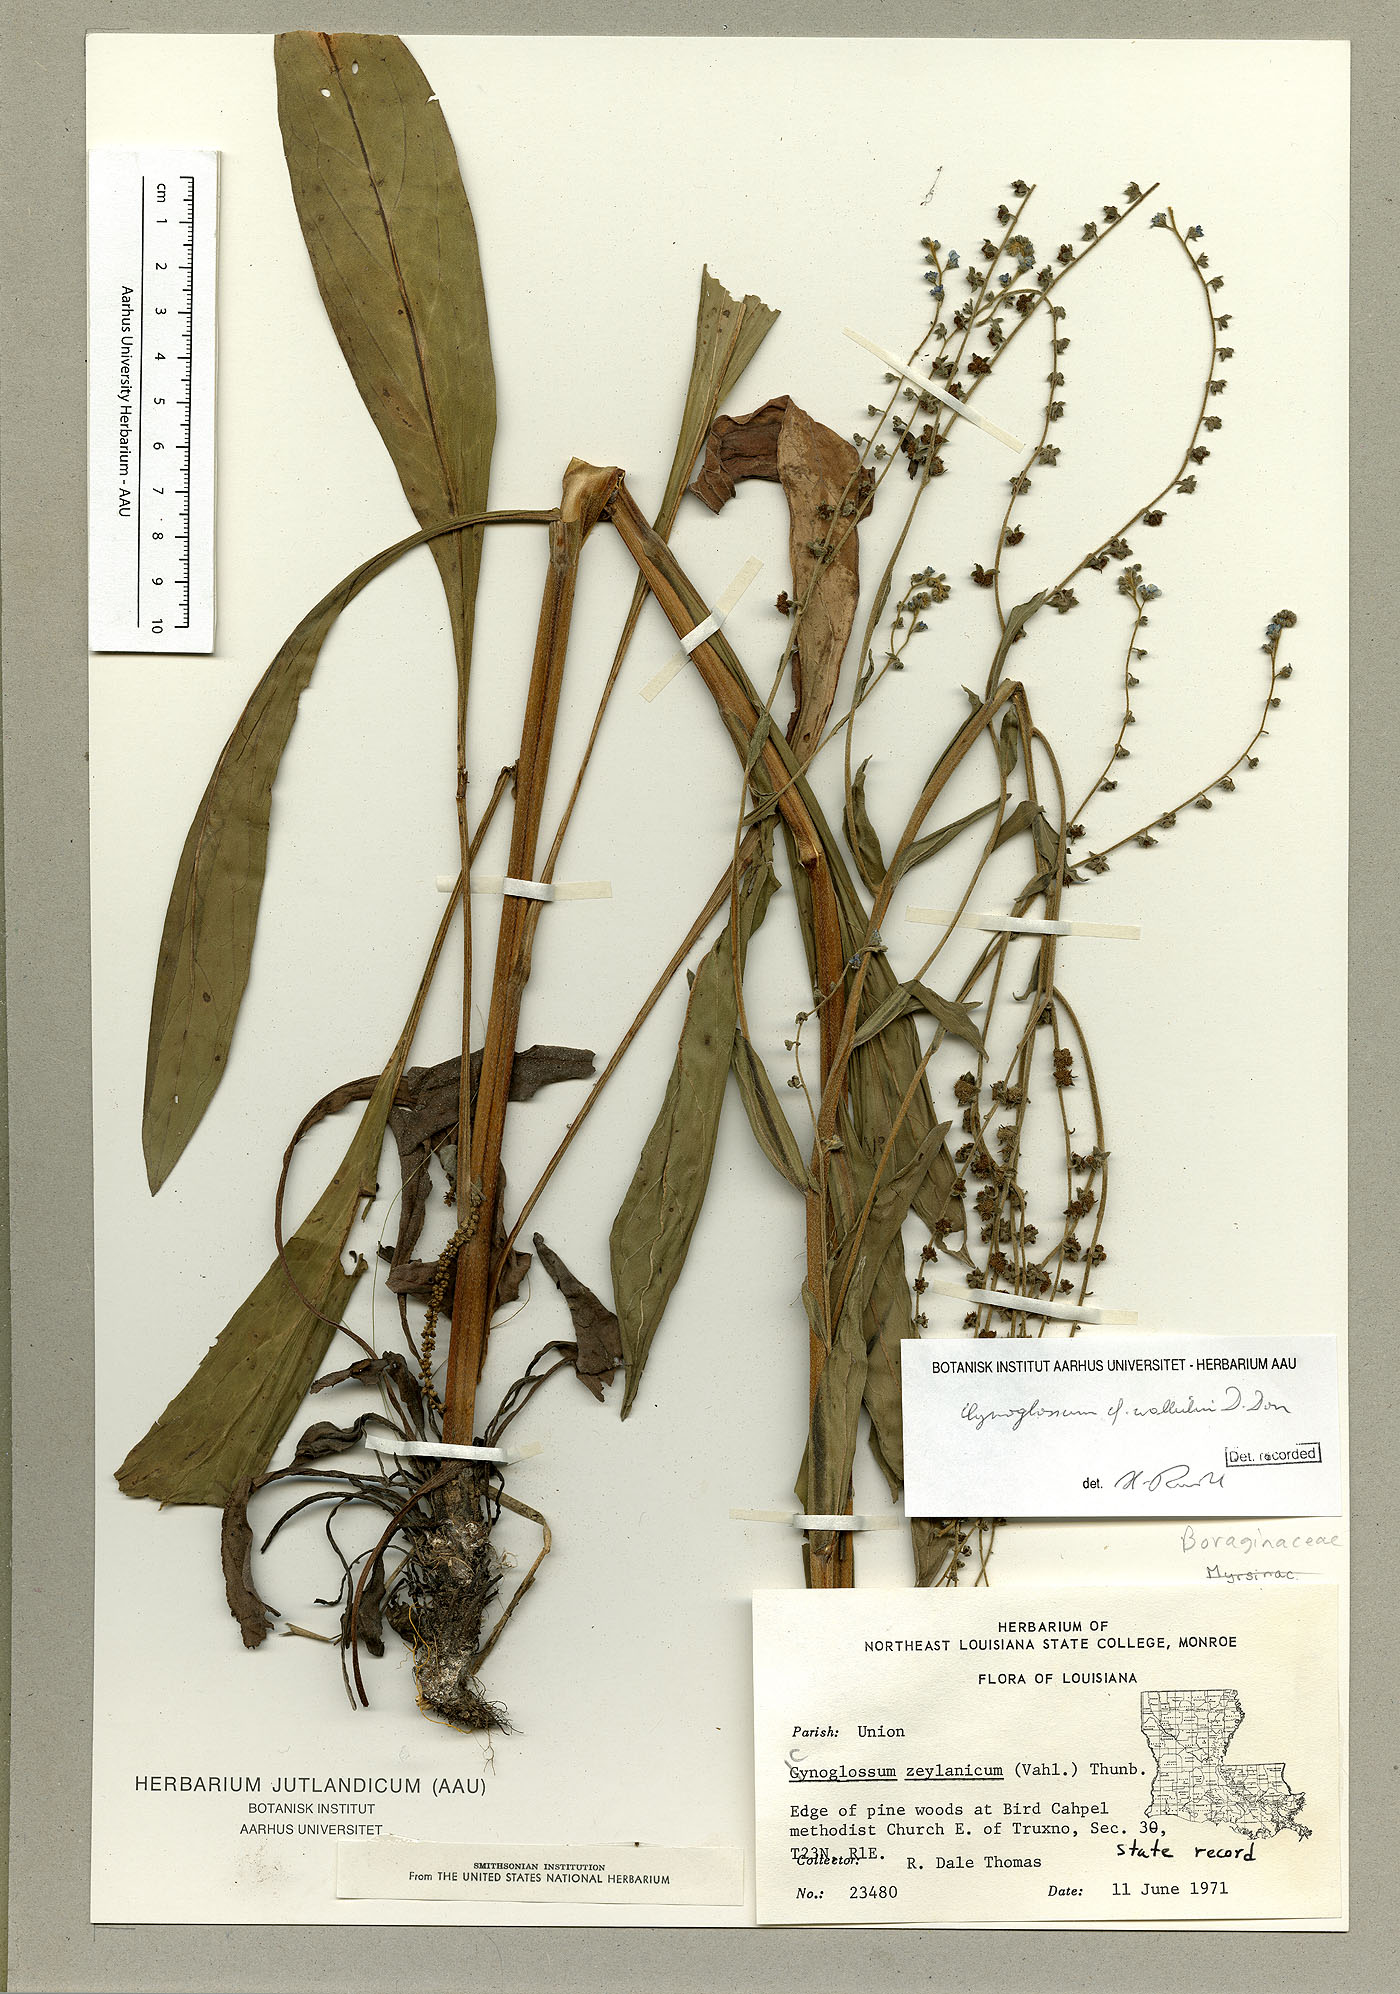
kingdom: Plantae
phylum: Tracheophyta
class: Magnoliopsida
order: Boraginales
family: Boraginaceae
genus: Rochelia
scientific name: Rochelia zeylanica
